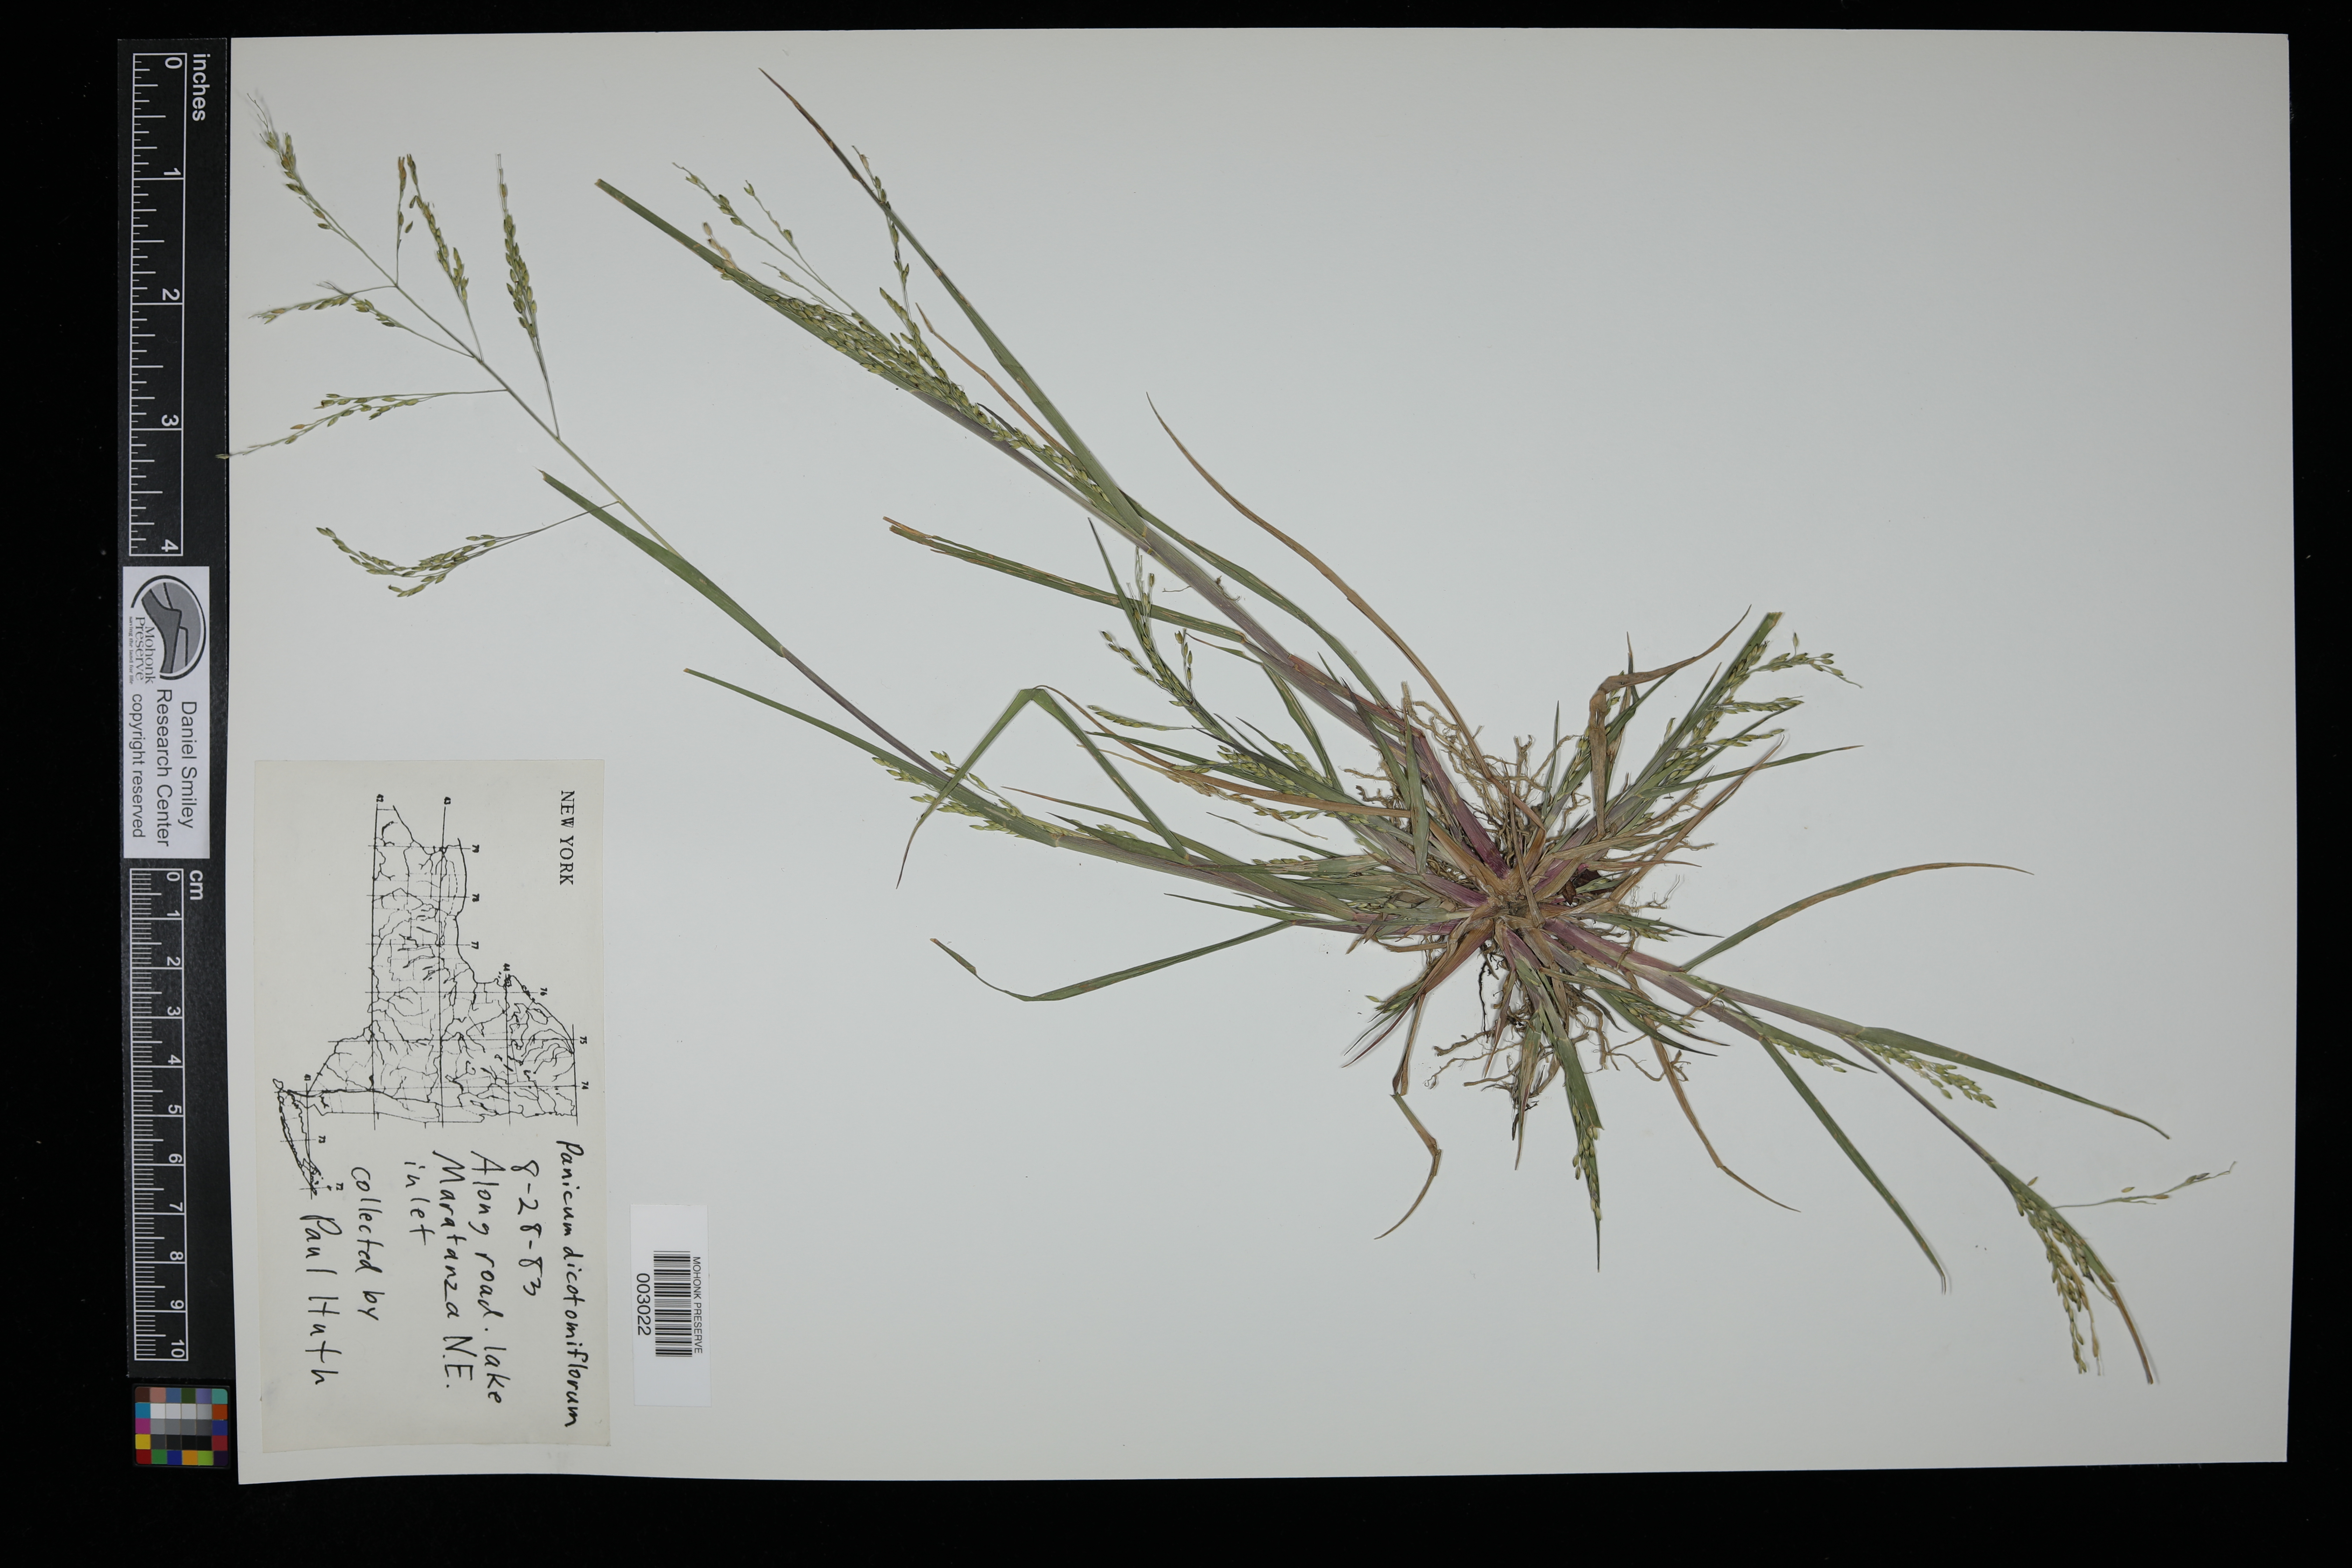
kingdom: Plantae
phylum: Tracheophyta
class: Liliopsida
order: Poales
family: Poaceae
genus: Panicum
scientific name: Panicum dichotomiflorum
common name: Autumn millet
